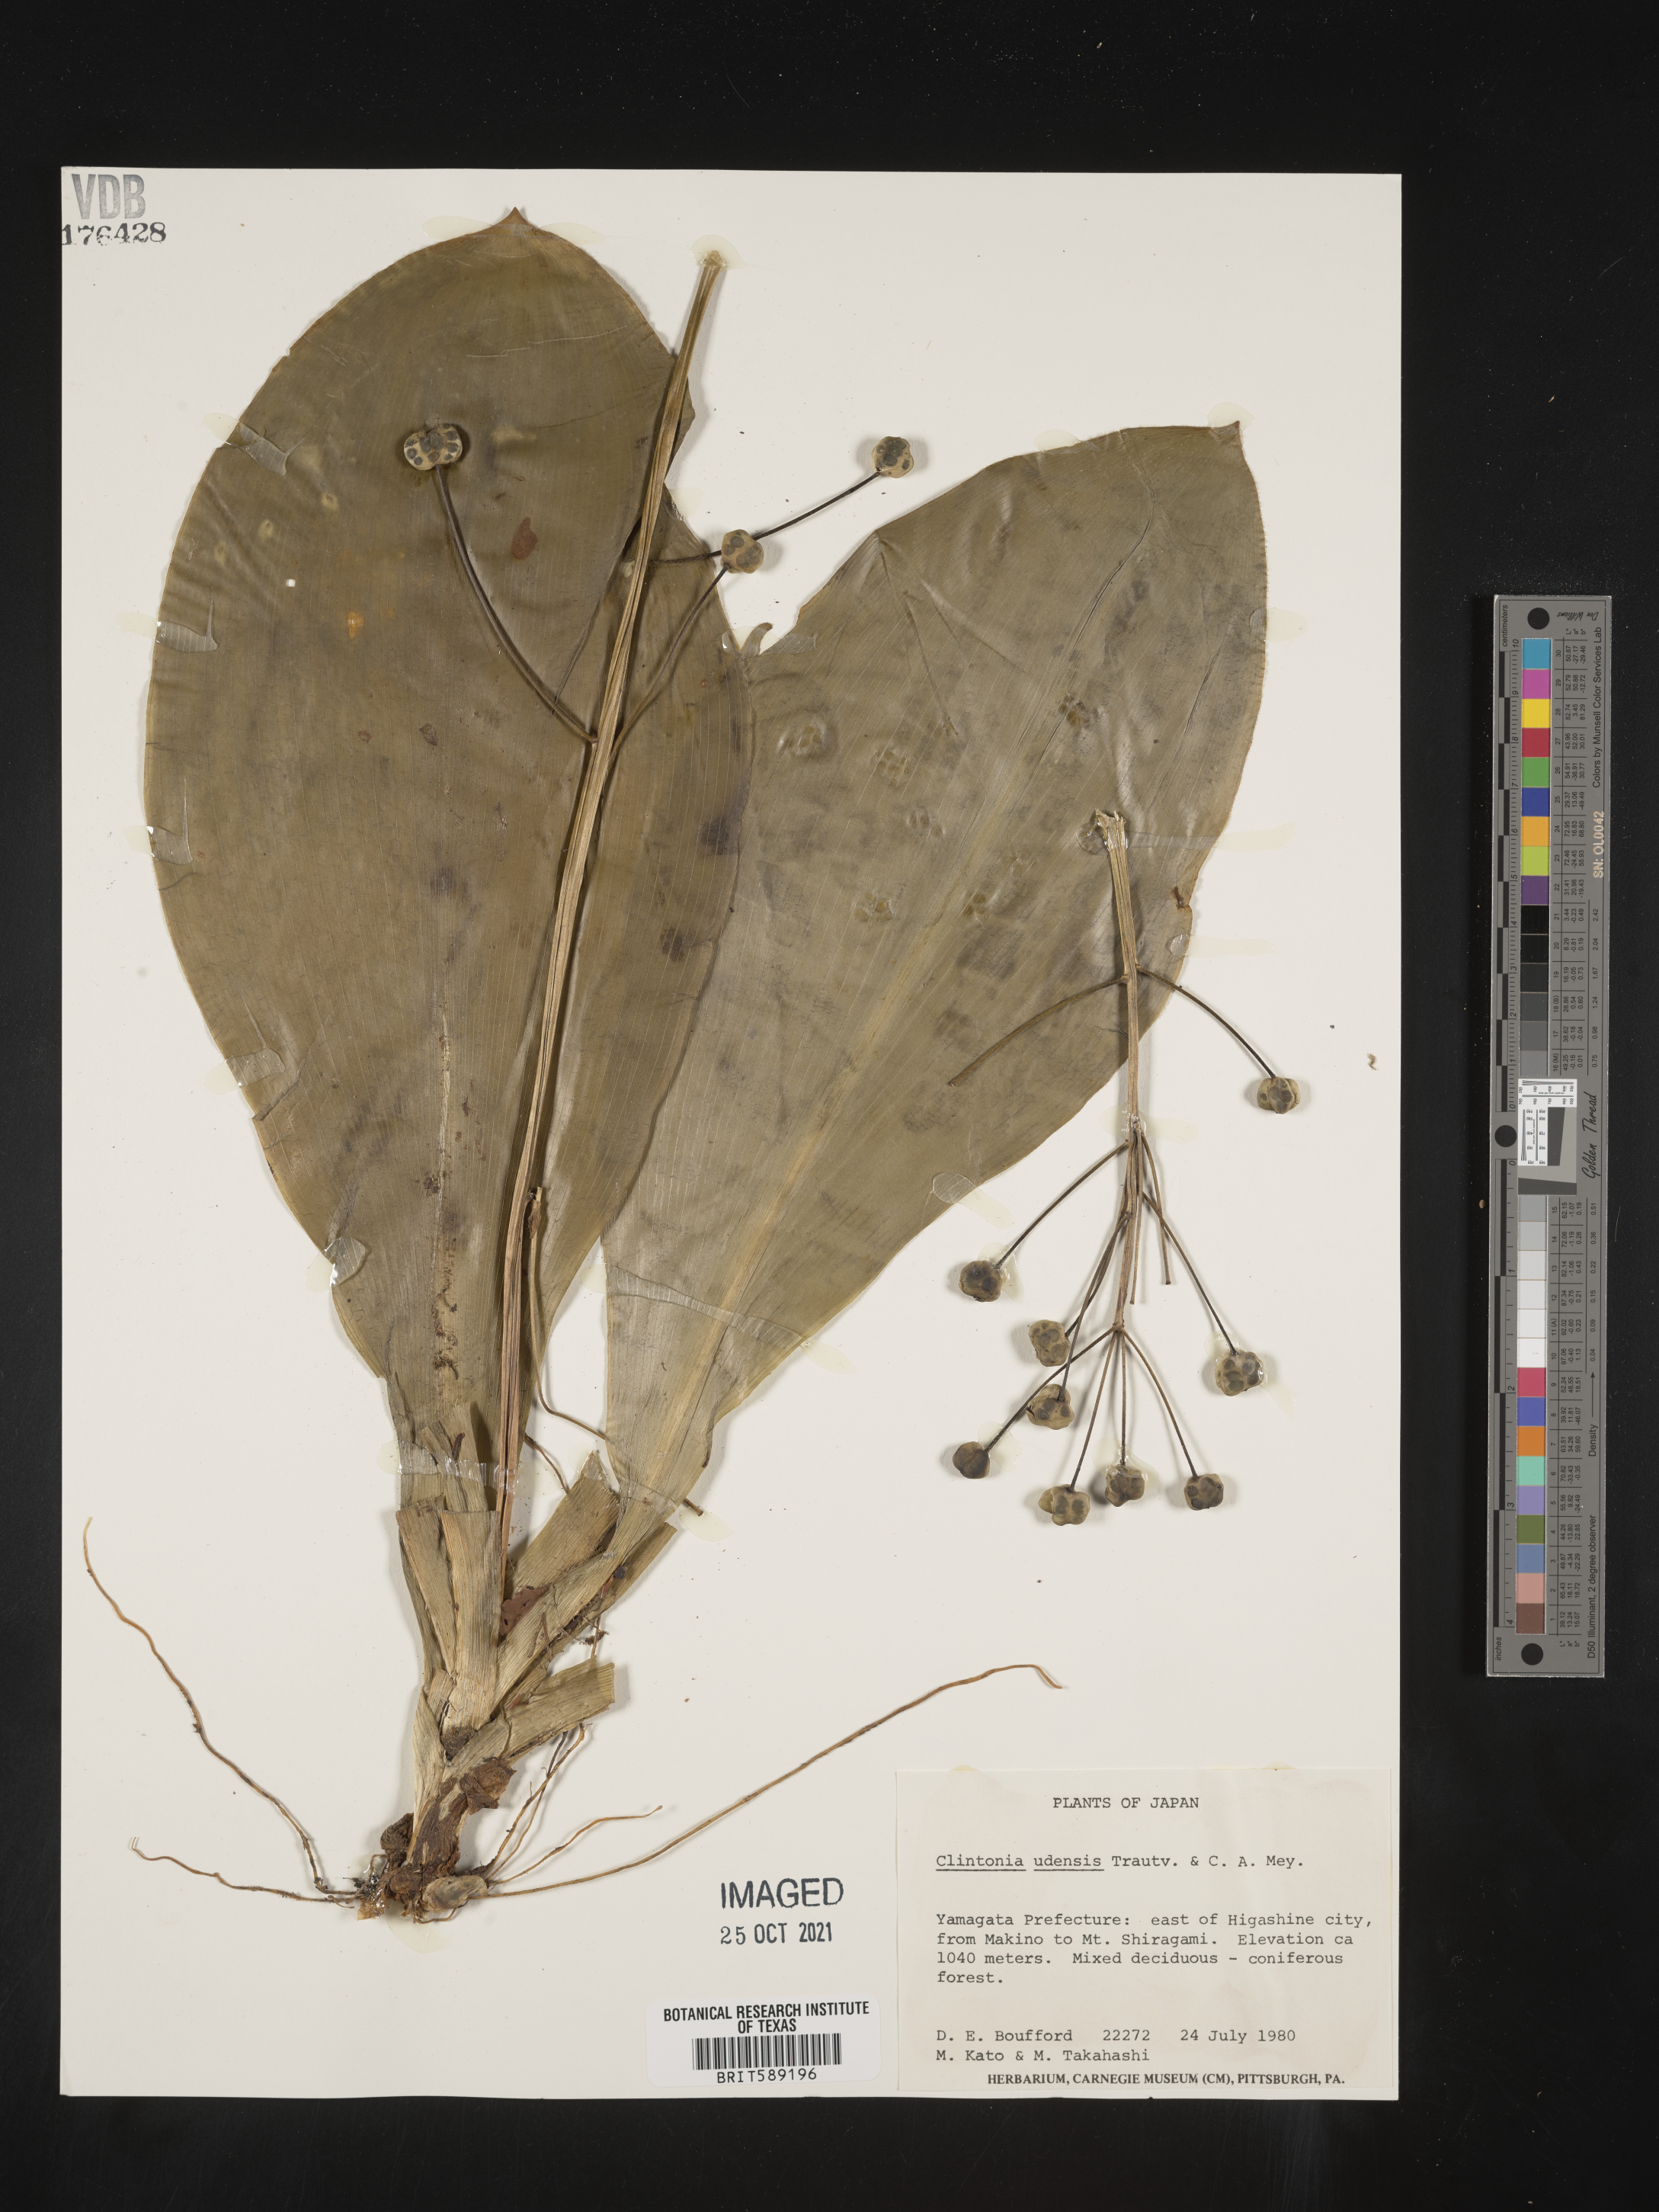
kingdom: Plantae
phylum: Tracheophyta
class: Liliopsida
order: Liliales
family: Liliaceae
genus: Clintonia
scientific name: Clintonia
